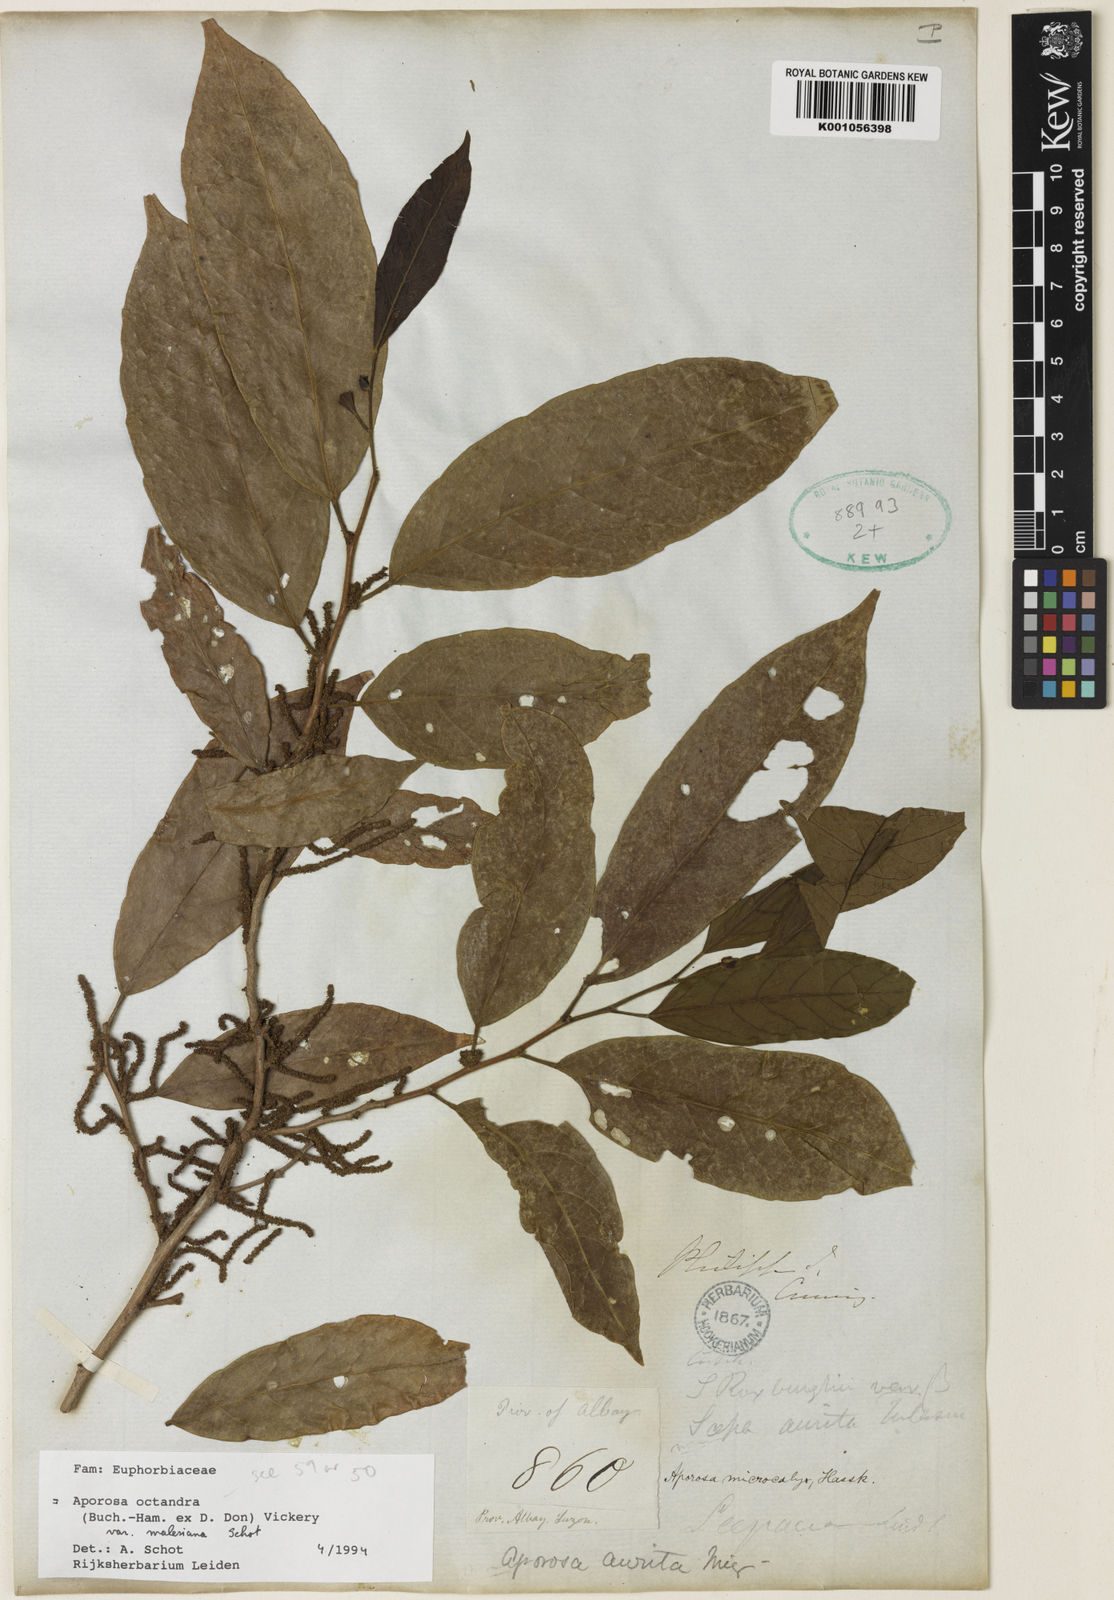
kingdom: Plantae
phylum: Tracheophyta
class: Magnoliopsida
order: Malpighiales
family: Phyllanthaceae
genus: Aporosa
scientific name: Aporosa octandra
